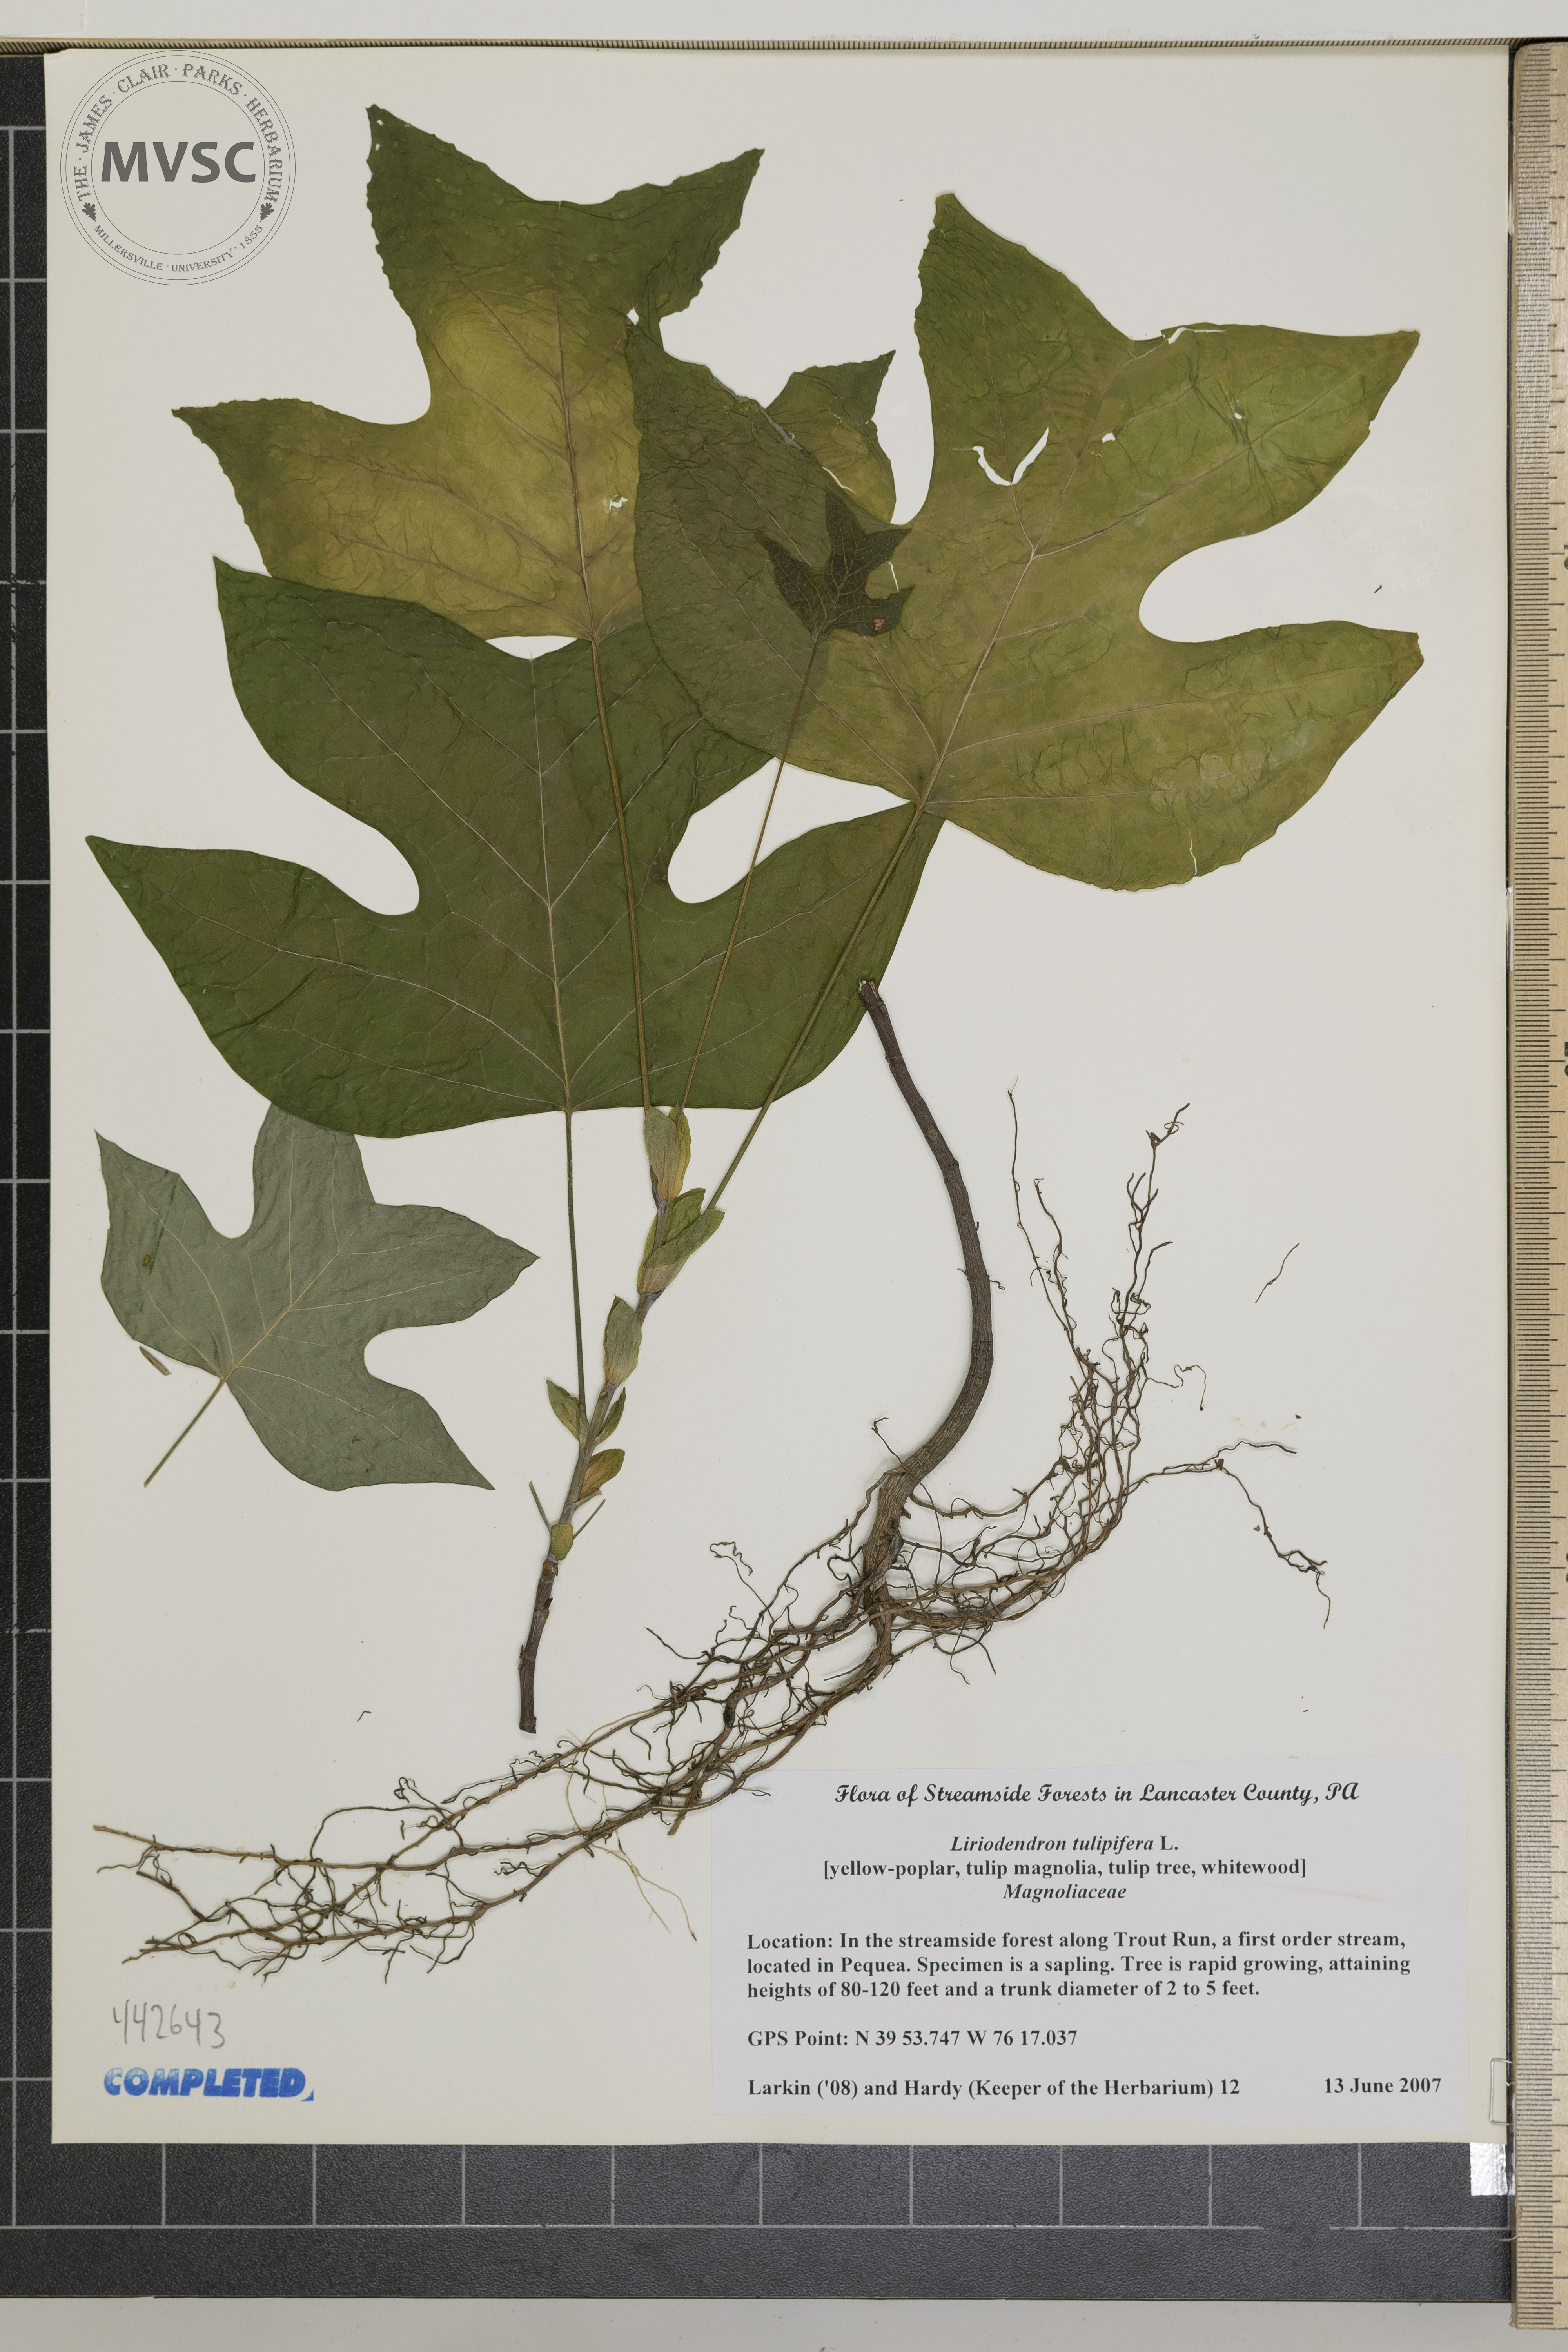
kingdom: Plantae
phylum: Tracheophyta
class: Magnoliopsida
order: Magnoliales
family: Magnoliaceae
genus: Liriodendron
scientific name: Liriodendron tulipifera
